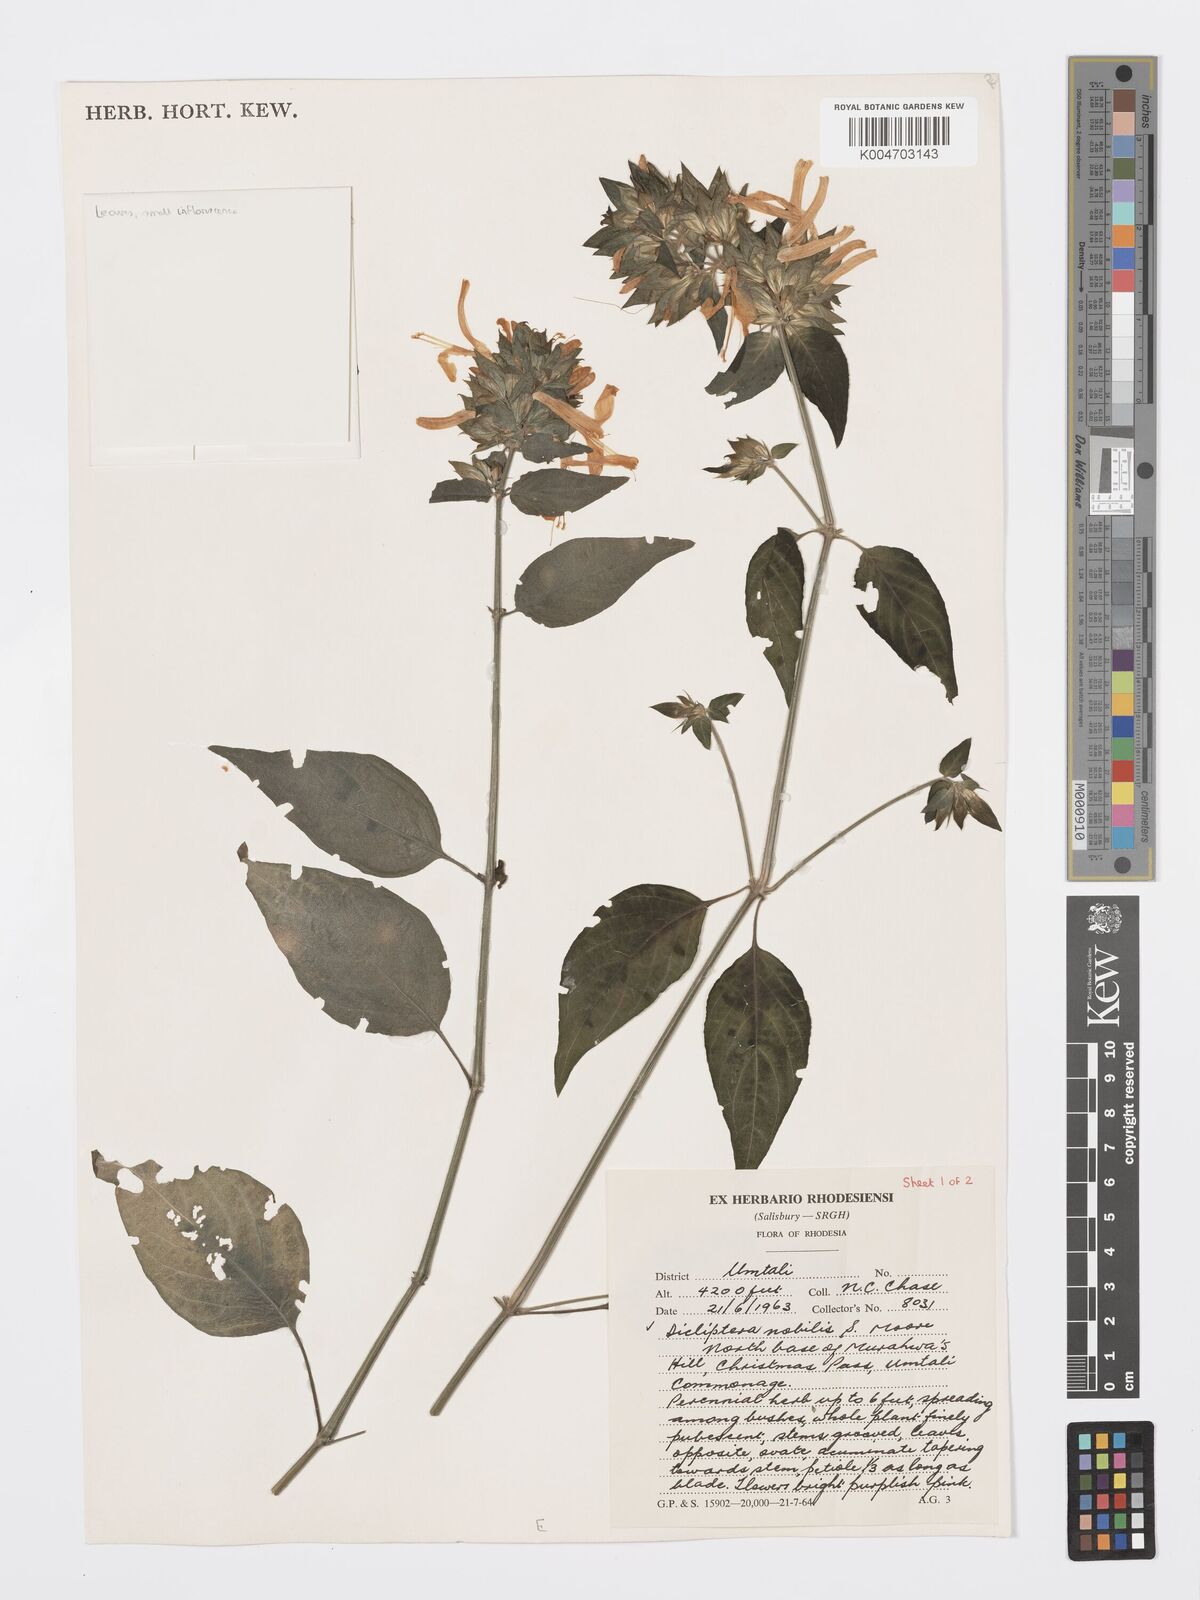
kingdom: Plantae
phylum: Tracheophyta
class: Magnoliopsida
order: Lamiales
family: Acanthaceae
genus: Dicliptera
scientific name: Dicliptera clinopodia
